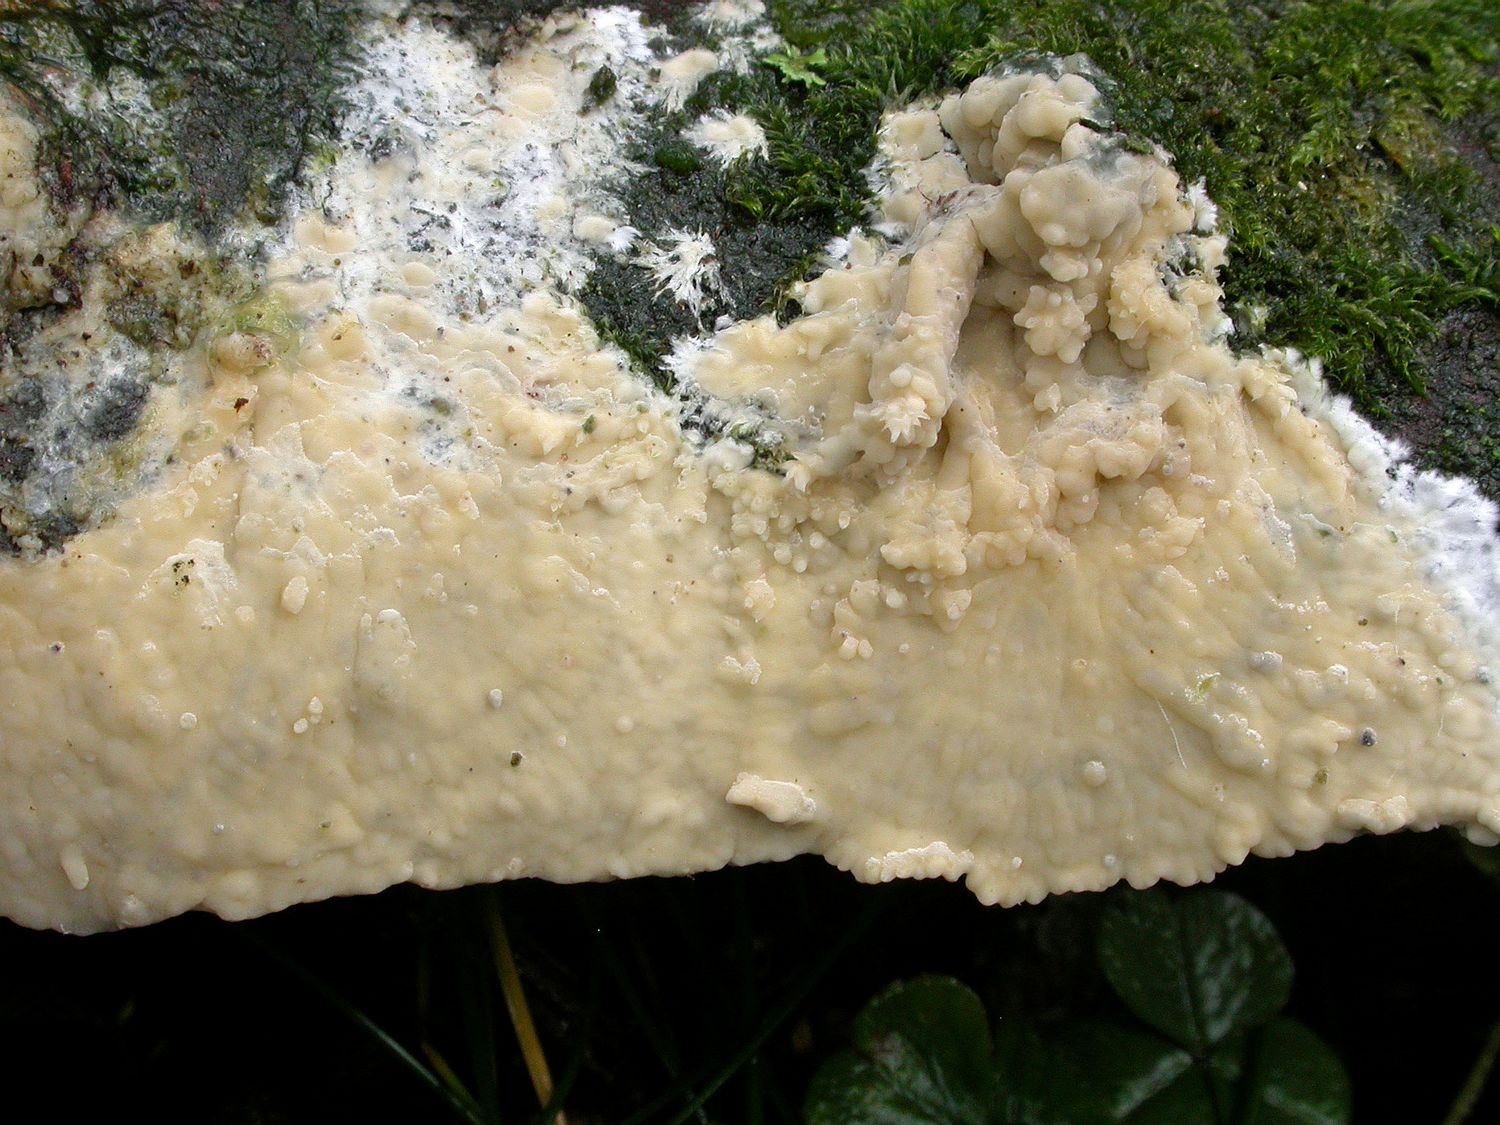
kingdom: Fungi
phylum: Basidiomycota
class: Agaricomycetes
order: Russulales
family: Peniophoraceae
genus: Gloiothele
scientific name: Gloiothele citrina
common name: citronskorpe
